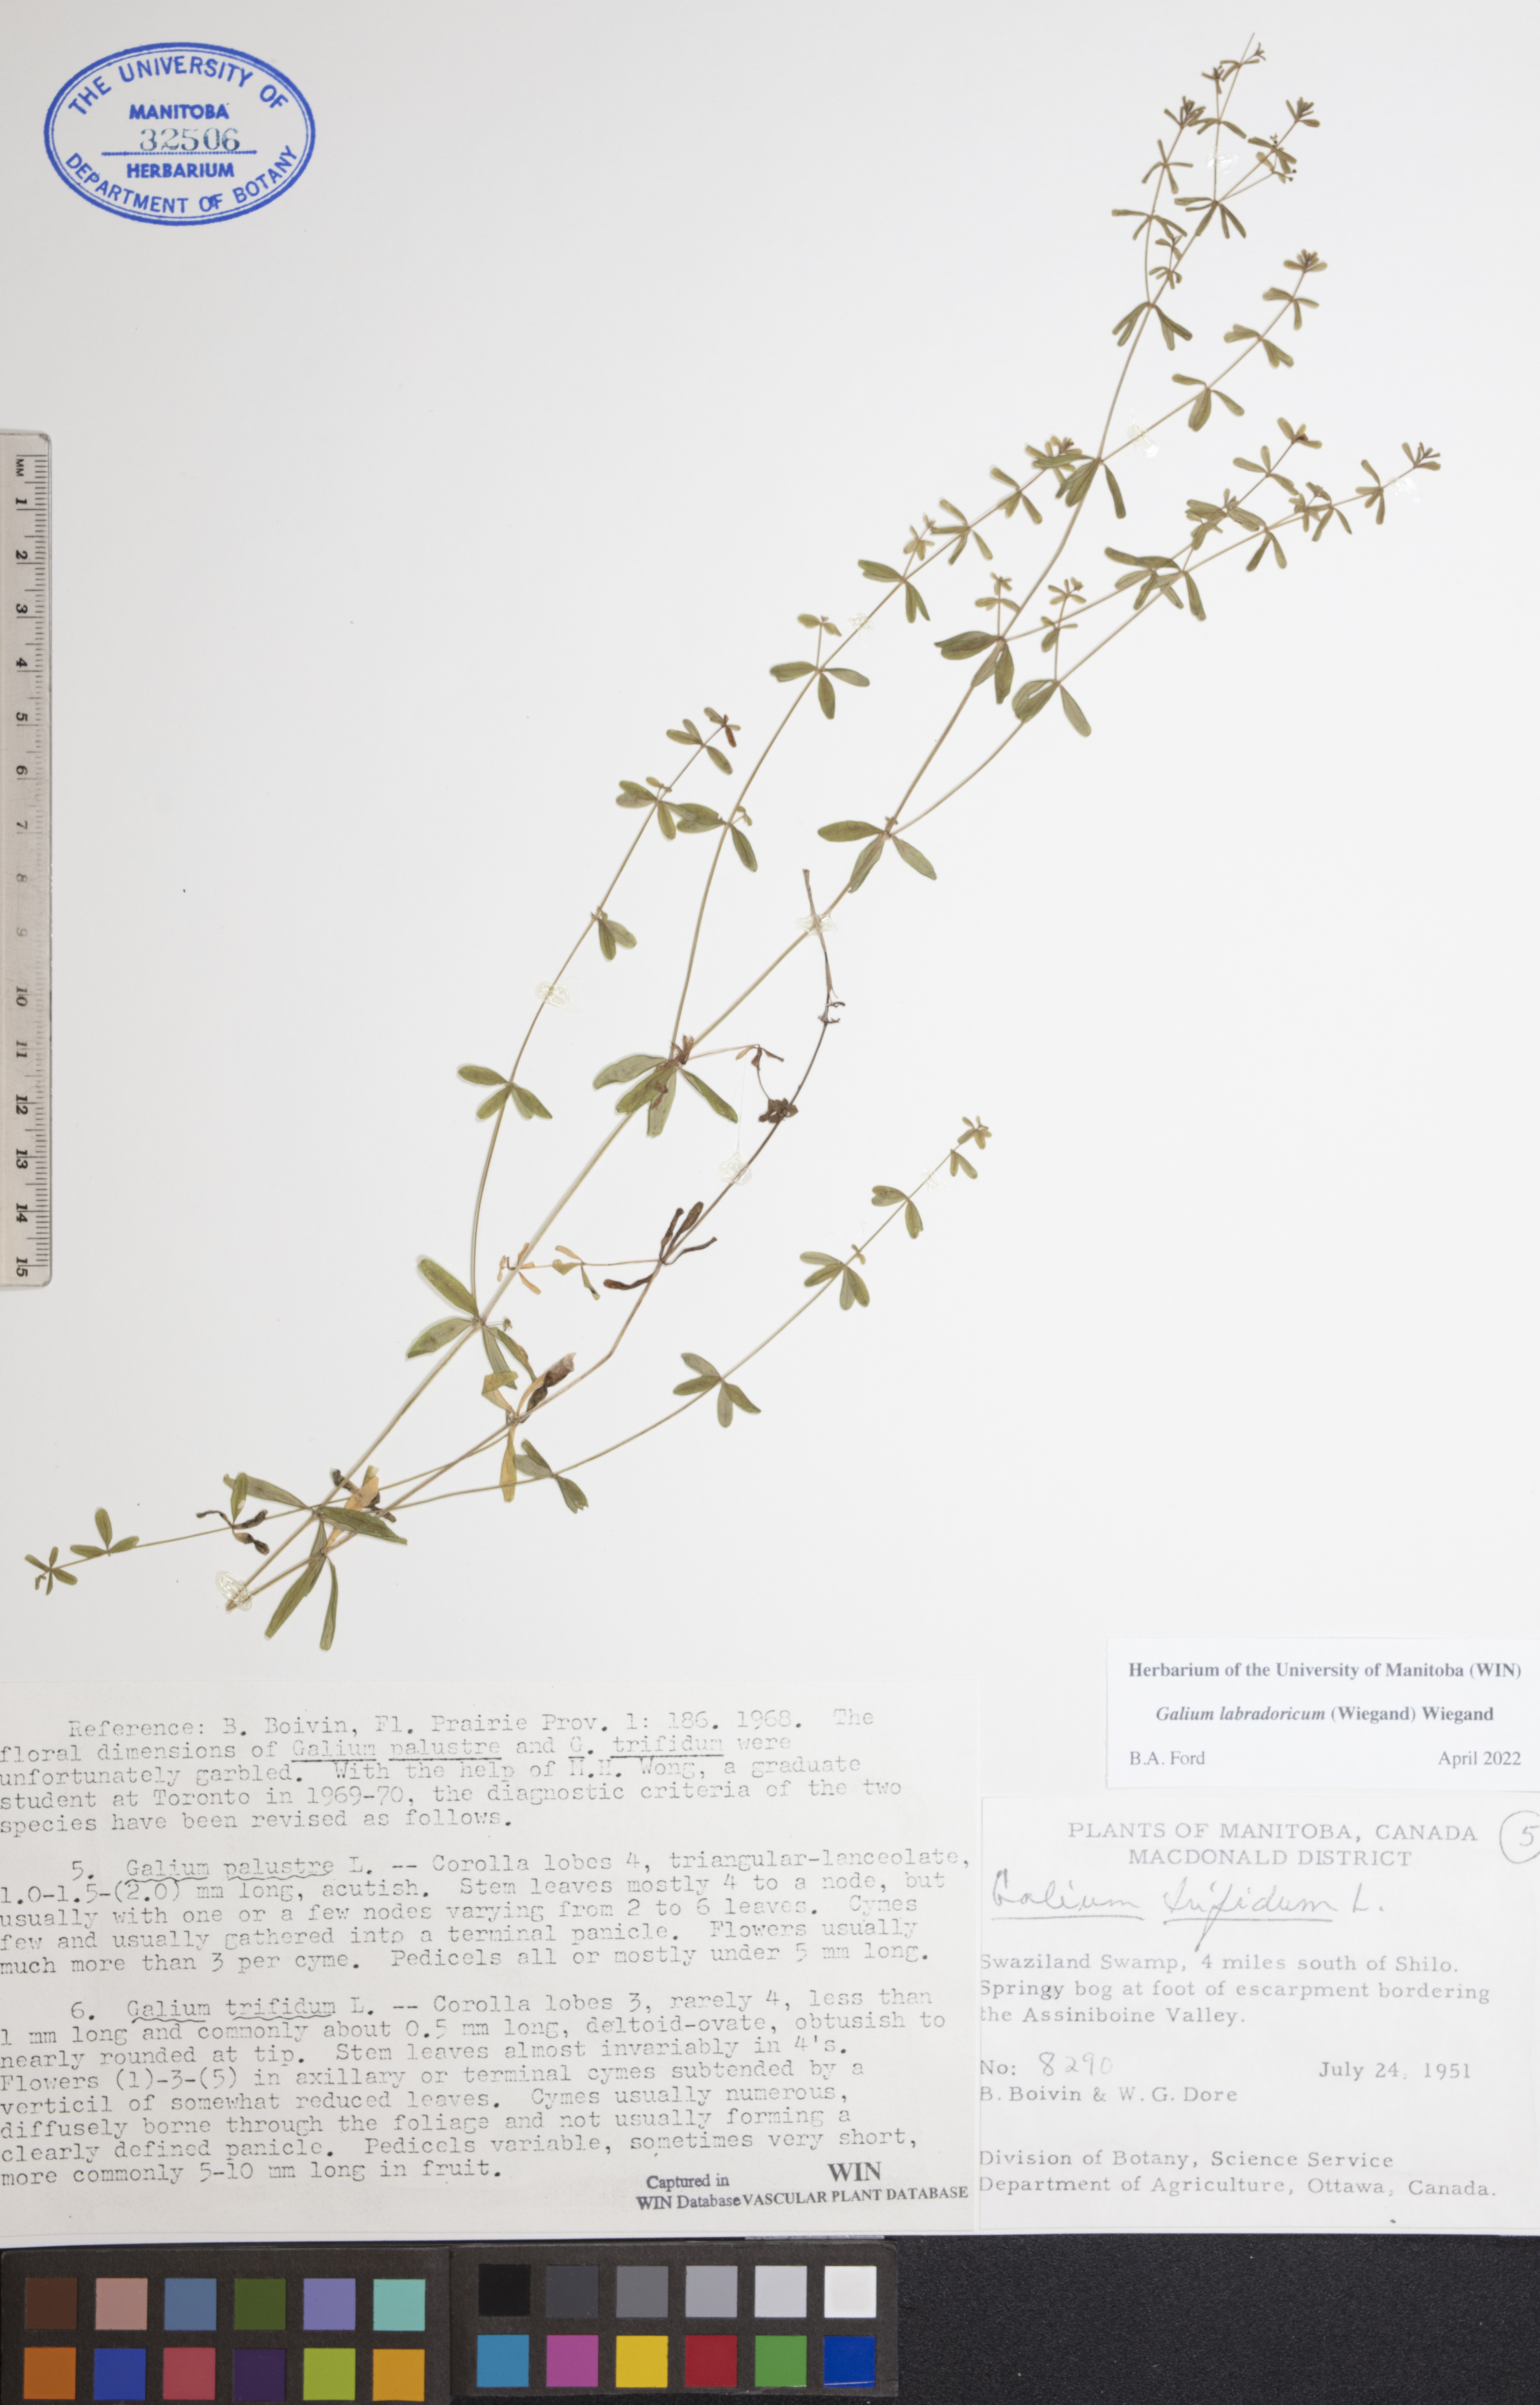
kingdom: Plantae
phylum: Tracheophyta
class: Magnoliopsida
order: Gentianales
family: Rubiaceae
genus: Galium
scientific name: Galium labradoricum
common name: Labrador bedstraw
